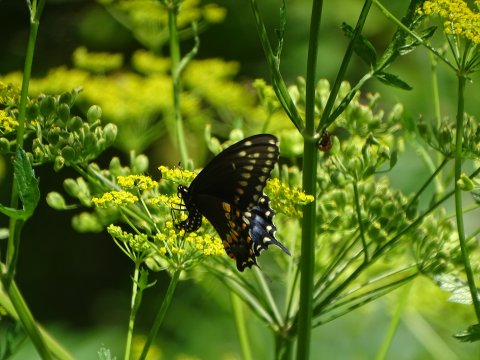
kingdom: Animalia
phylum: Arthropoda
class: Insecta
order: Lepidoptera
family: Papilionidae
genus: Papilio
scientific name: Papilio polyxenes
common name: Black Swallowtail
